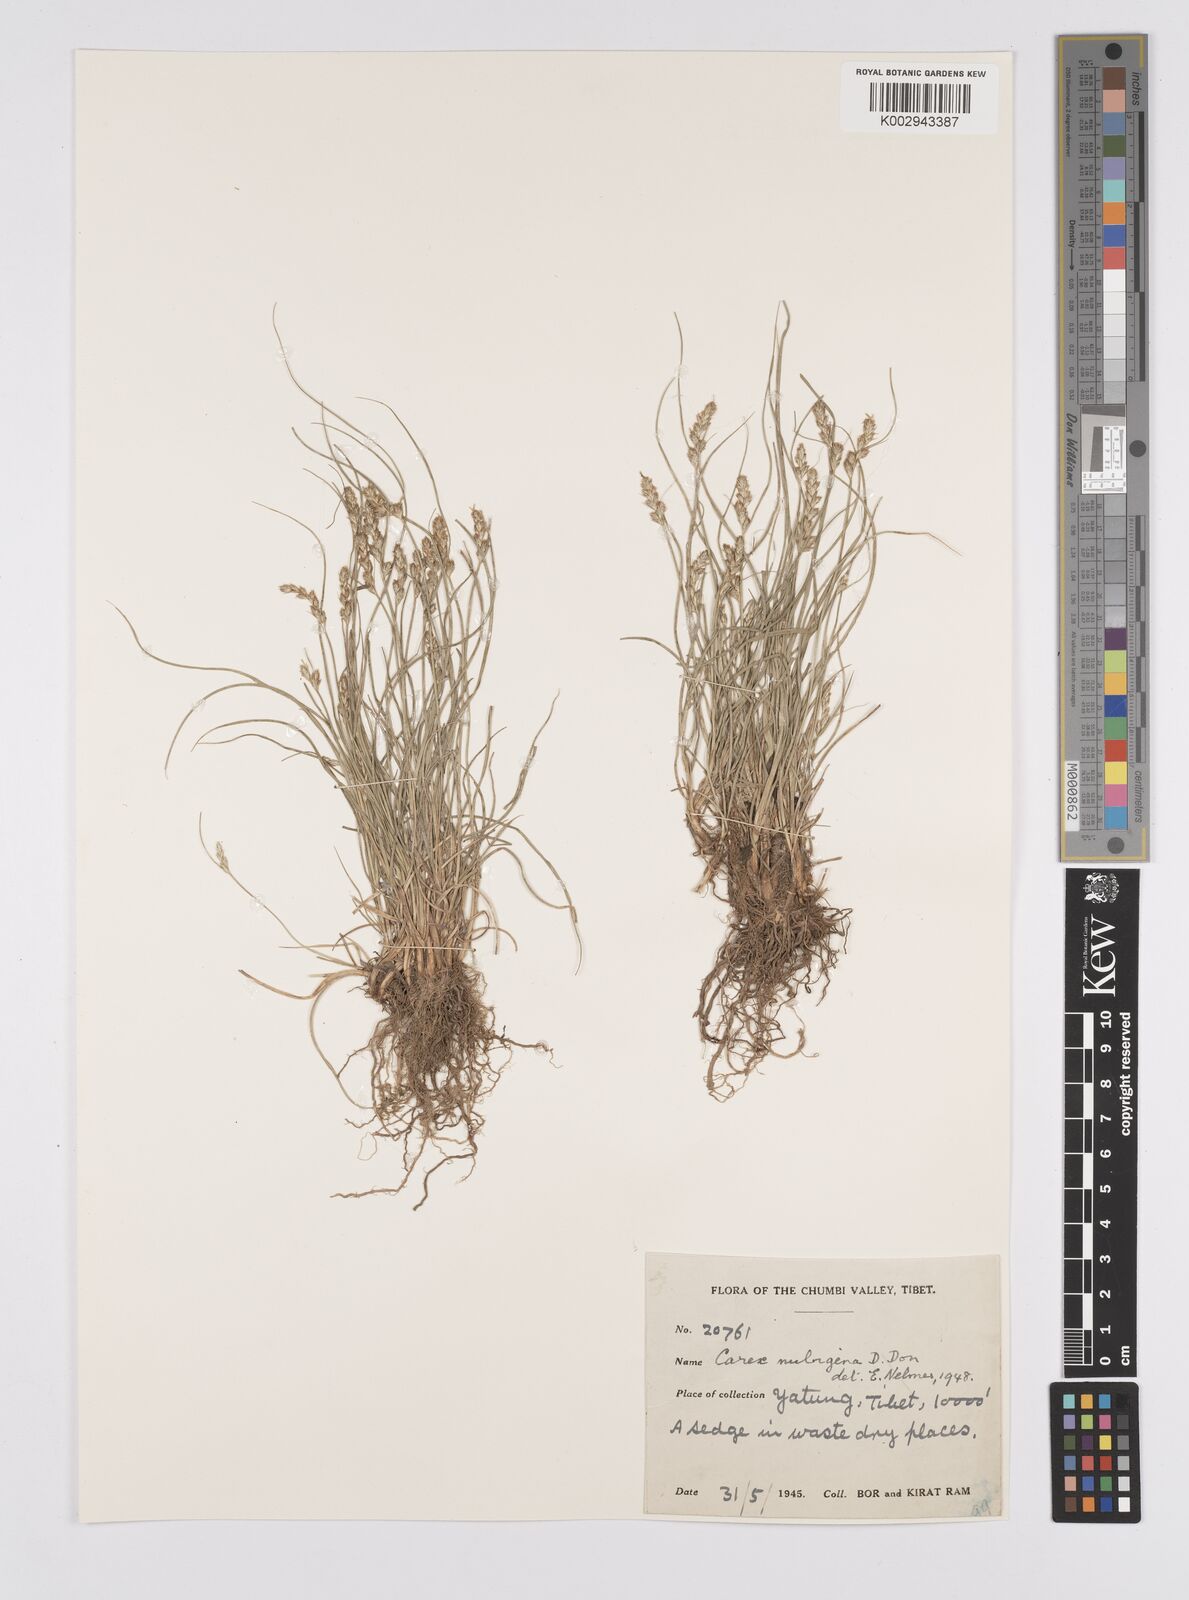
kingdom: Plantae
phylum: Tracheophyta
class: Liliopsida
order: Poales
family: Cyperaceae
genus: Carex
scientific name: Carex nubigena
